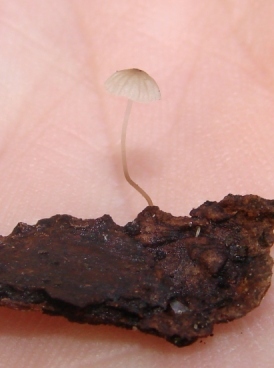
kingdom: Fungi
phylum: Basidiomycota
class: Agaricomycetes
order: Agaricales
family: Porotheleaceae
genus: Phloeomana
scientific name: Phloeomana hiemalis
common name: sen huesvamp
